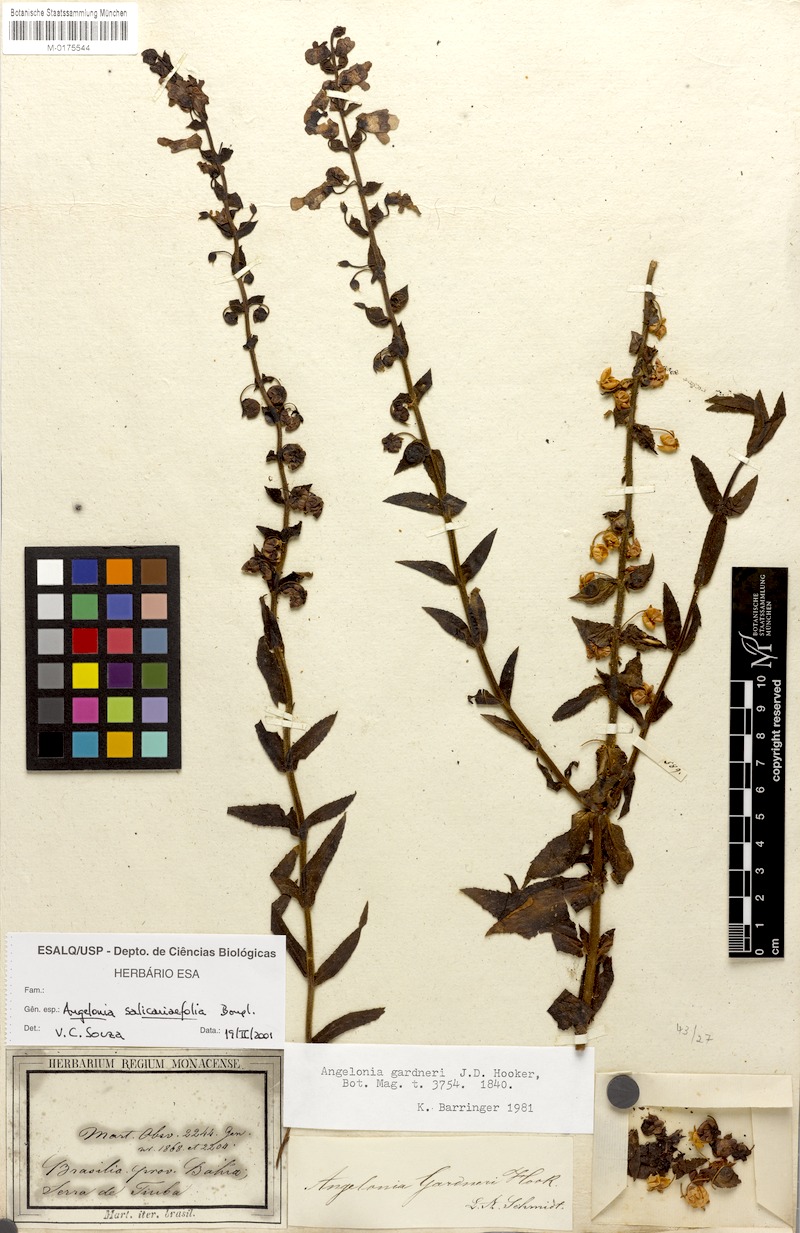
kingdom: Plantae
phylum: Tracheophyta
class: Magnoliopsida
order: Lamiales
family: Plantaginaceae
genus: Angelonia
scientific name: Angelonia salicariifolia
